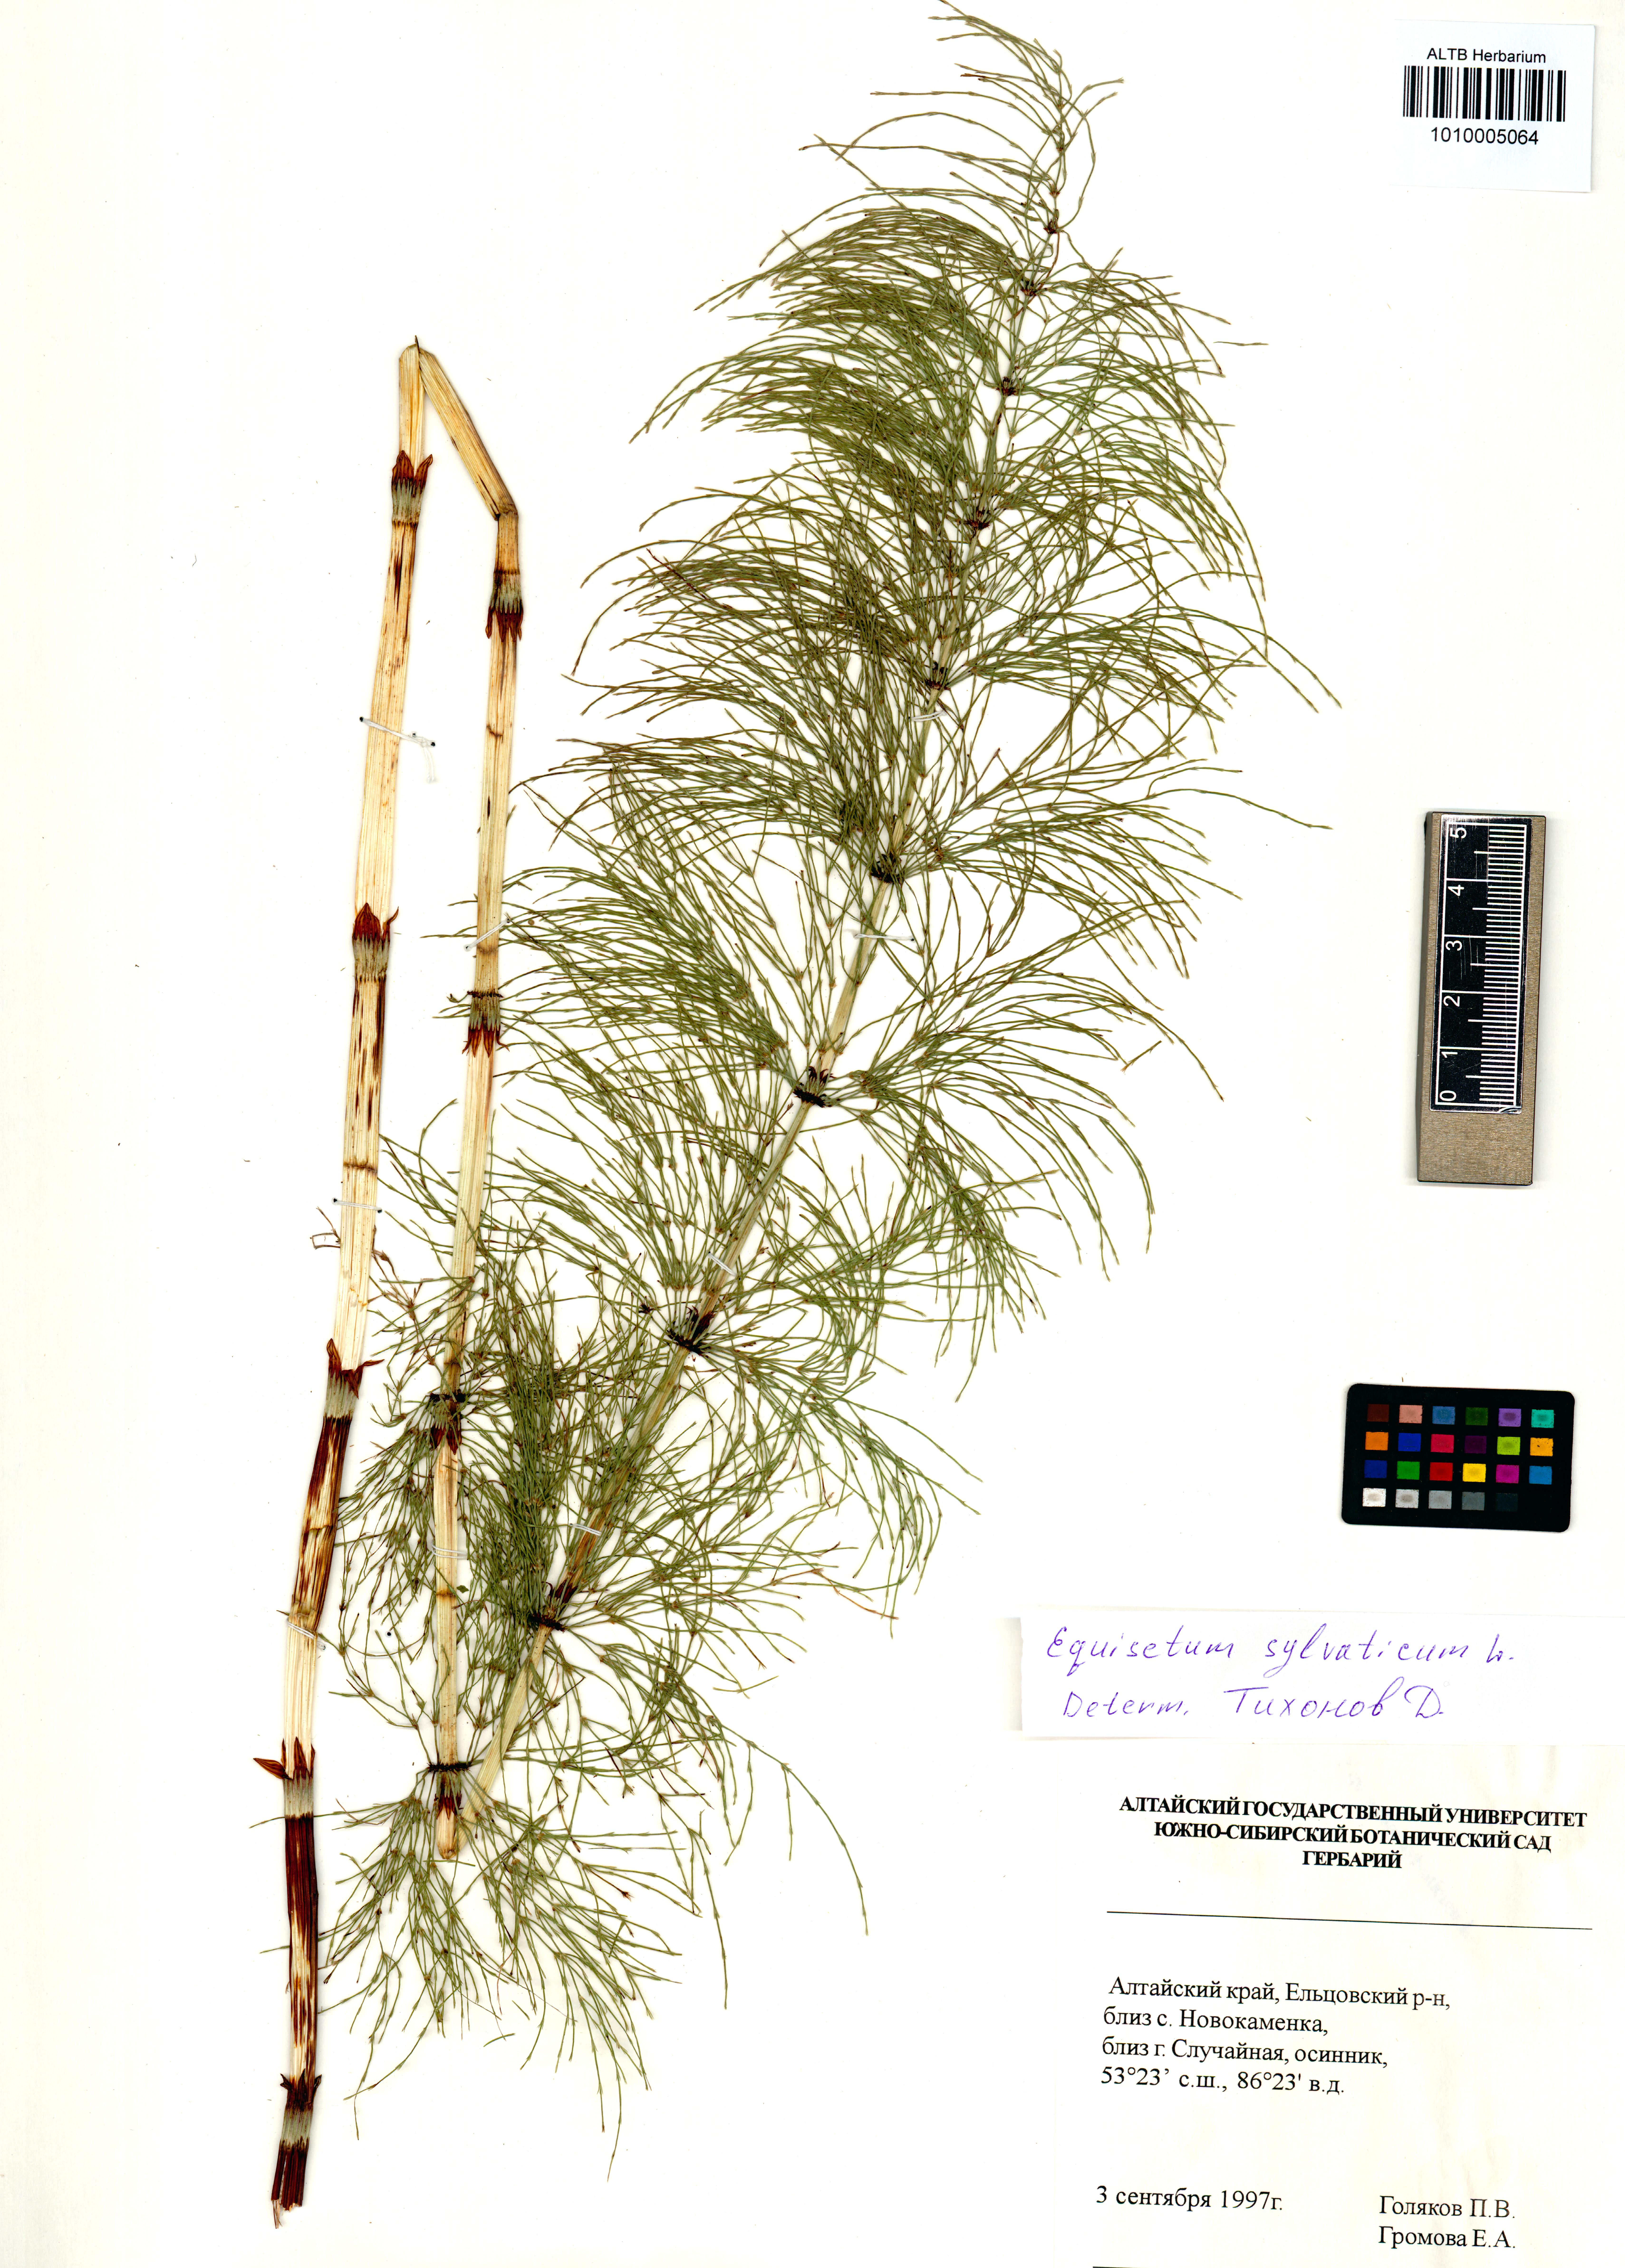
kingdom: Plantae
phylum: Tracheophyta
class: Polypodiopsida
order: Equisetales
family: Equisetaceae
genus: Equisetum
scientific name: Equisetum sylvaticum
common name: Wood horsetail
